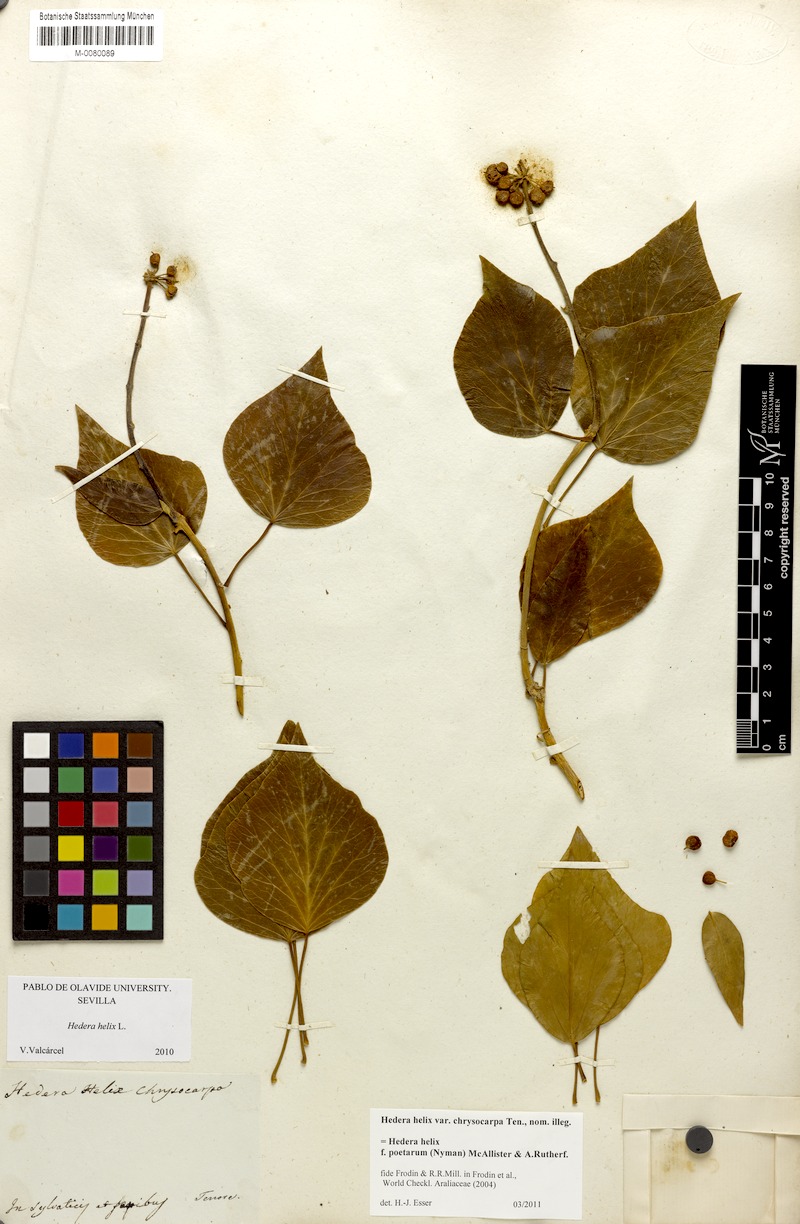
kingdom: Plantae
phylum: Tracheophyta
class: Magnoliopsida
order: Apiales
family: Araliaceae
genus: Hedera
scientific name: Hedera helix
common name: Ivy
